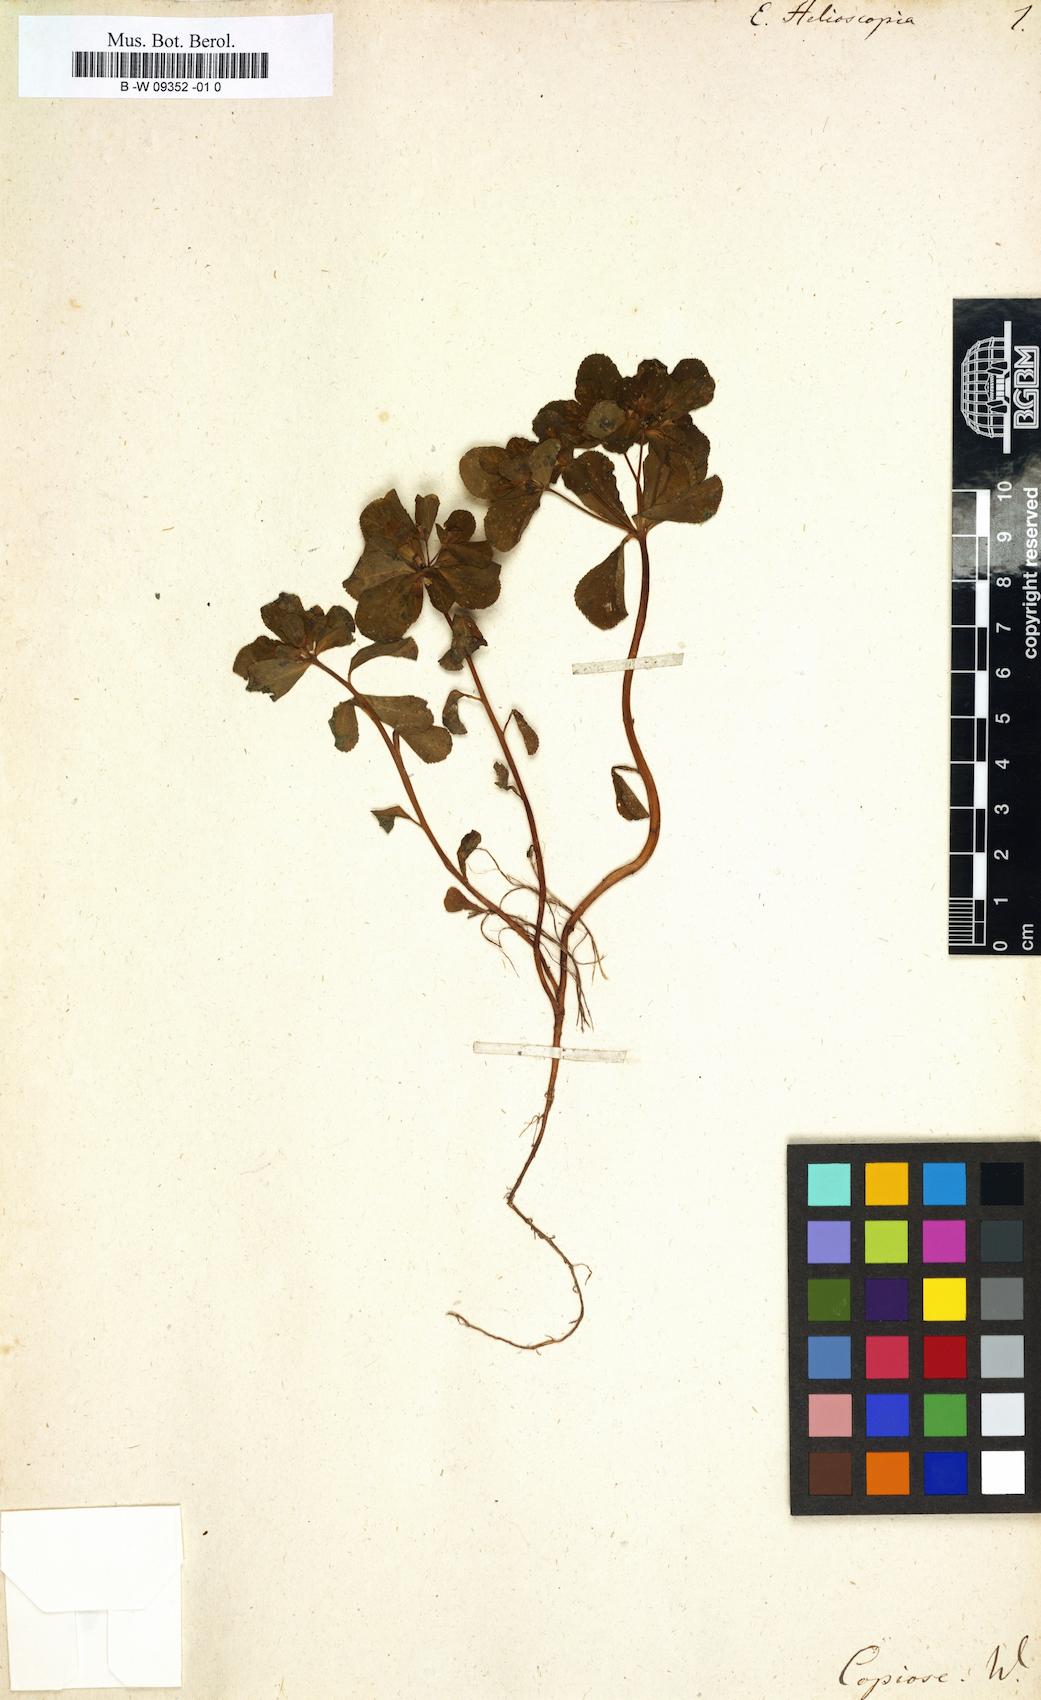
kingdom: Plantae
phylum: Tracheophyta
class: Magnoliopsida
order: Malpighiales
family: Euphorbiaceae
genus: Euphorbia
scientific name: Euphorbia helioscopia
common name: Sun spurge
